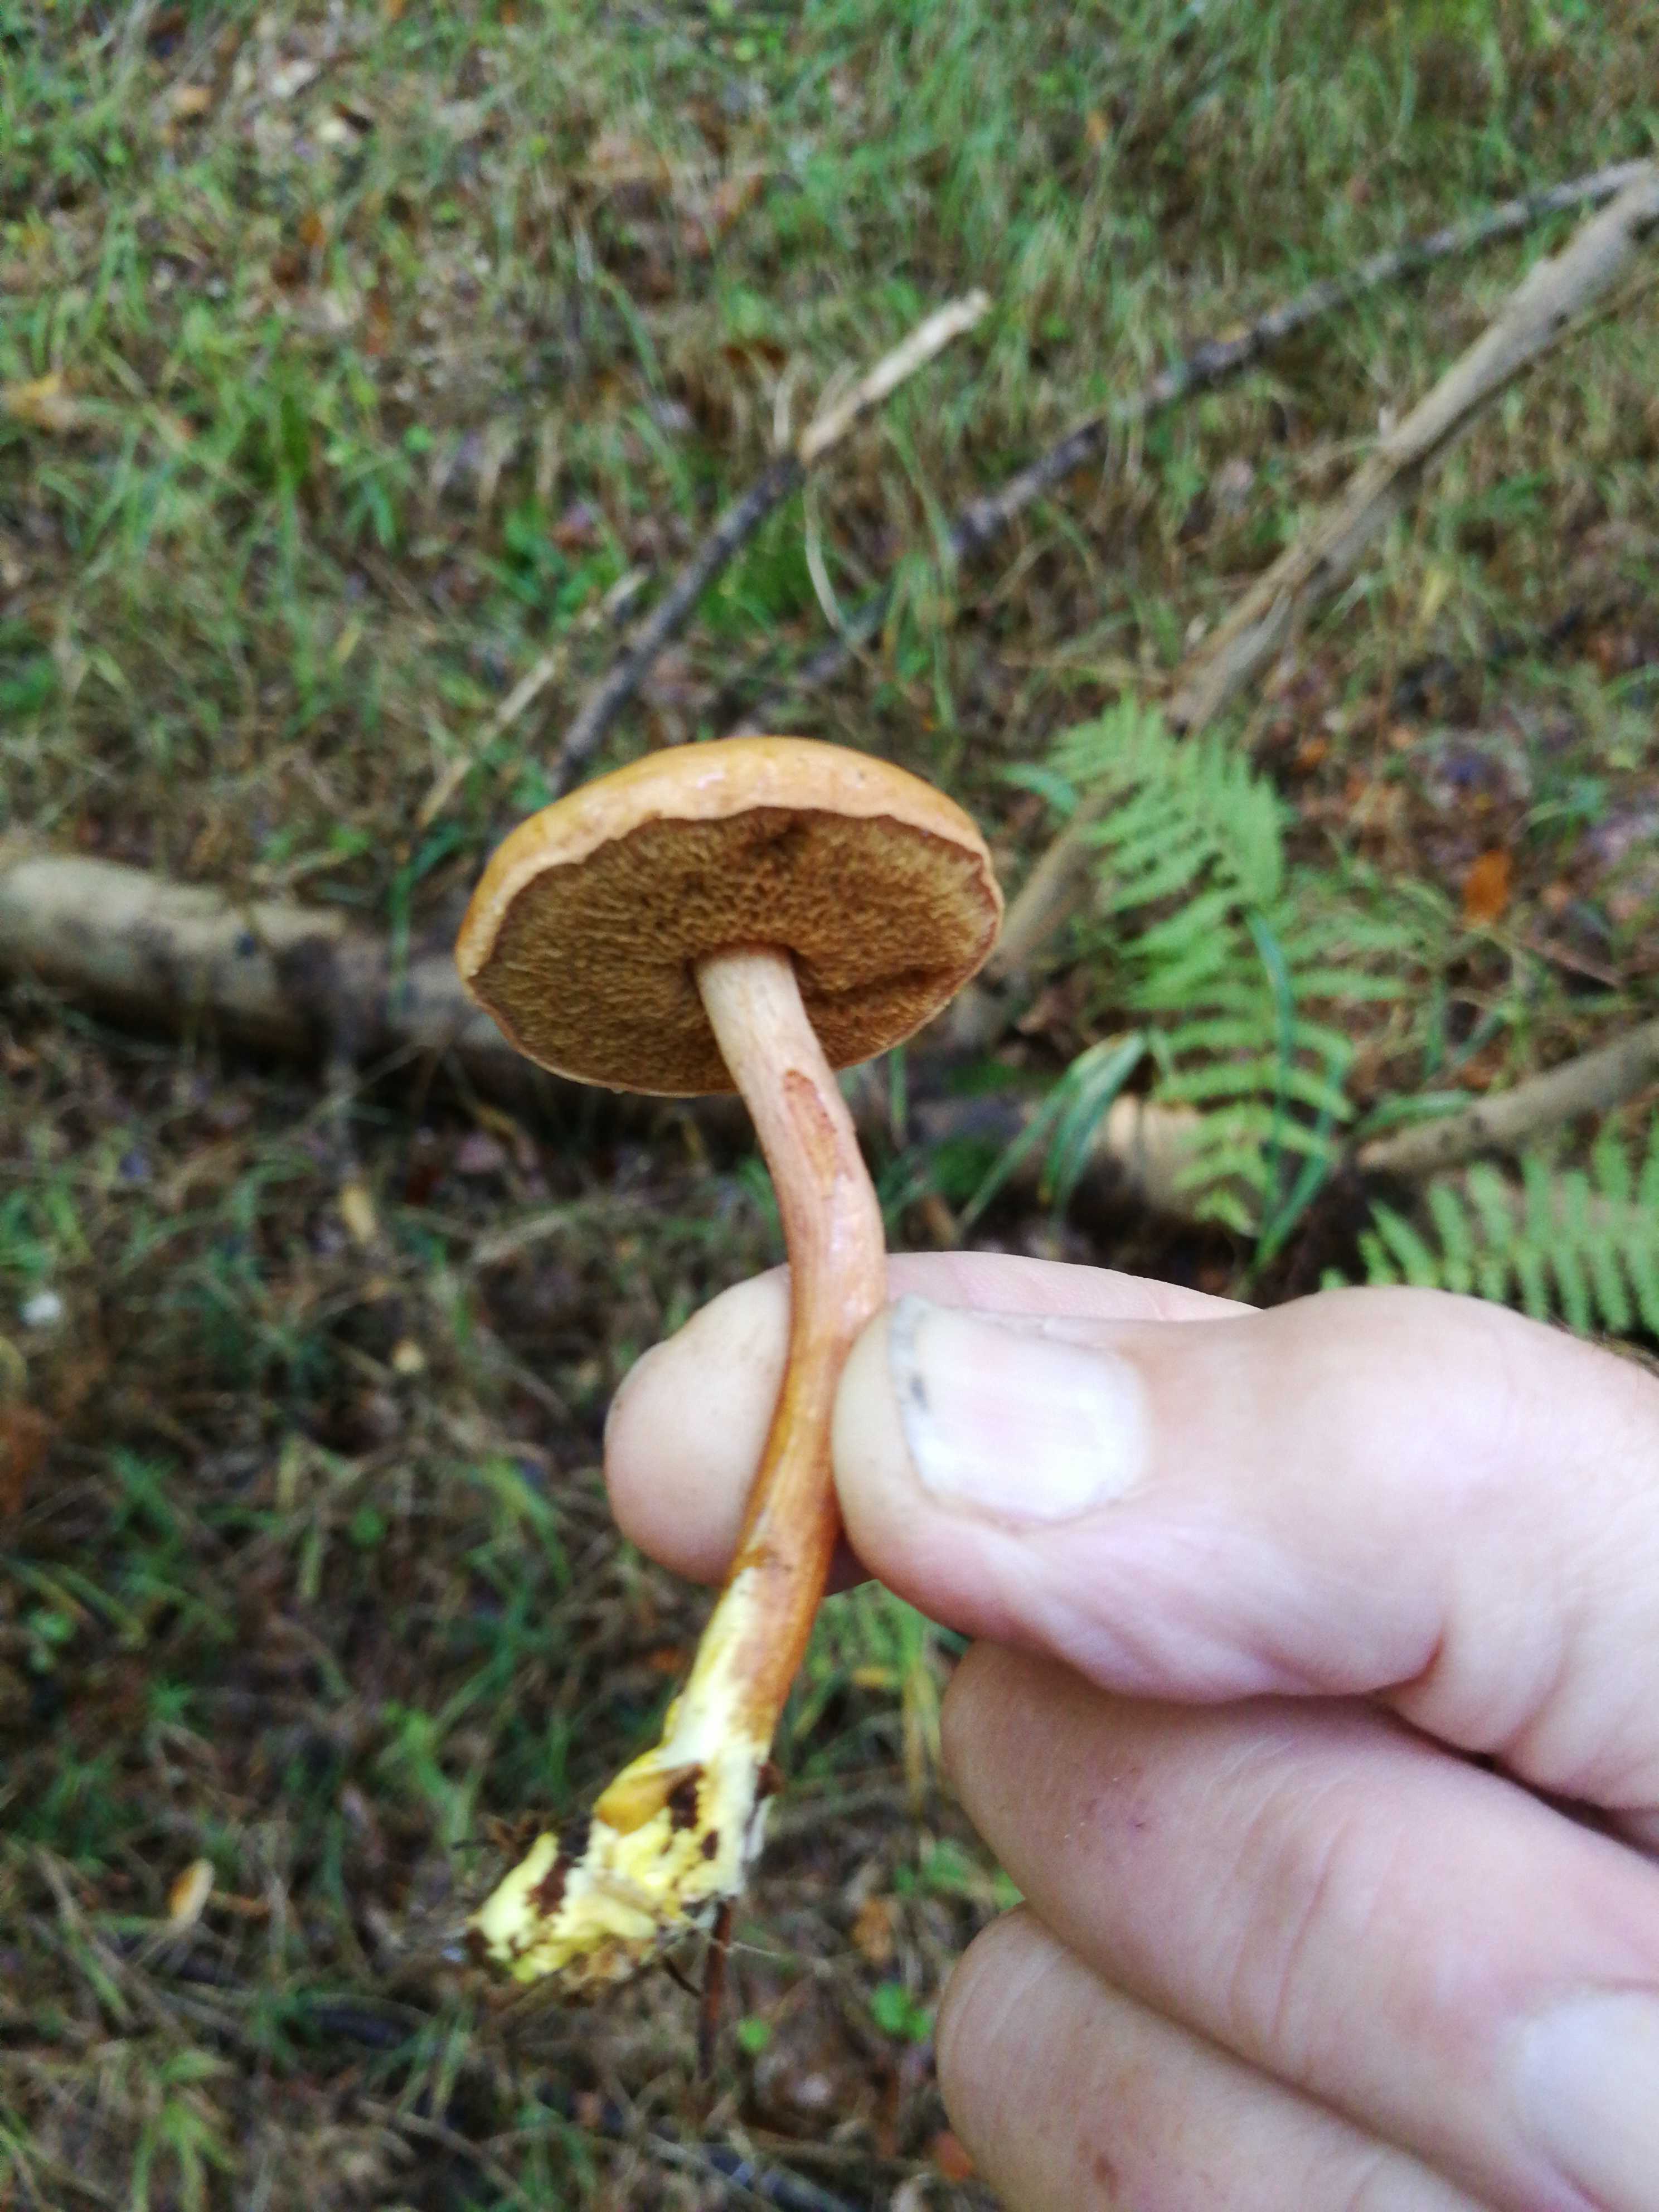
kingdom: Fungi
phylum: Basidiomycota
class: Agaricomycetes
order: Boletales
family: Boletaceae
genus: Chalciporus
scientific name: Chalciporus piperatus
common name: peberrørhat
